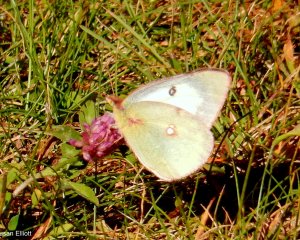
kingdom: Animalia
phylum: Arthropoda
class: Insecta
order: Lepidoptera
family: Pieridae
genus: Colias
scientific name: Colias philodice
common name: Clouded Sulphur
